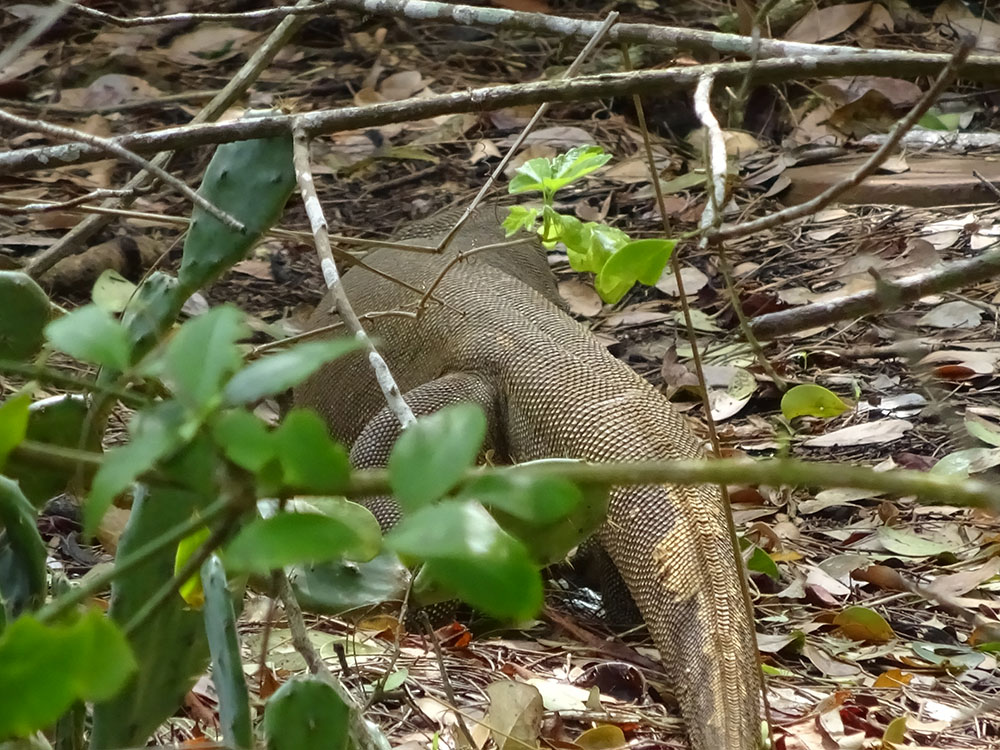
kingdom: Animalia
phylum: Chordata
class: Squamata
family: Varanidae
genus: Varanus
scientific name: Varanus bengalensis
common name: Bengal monitor
